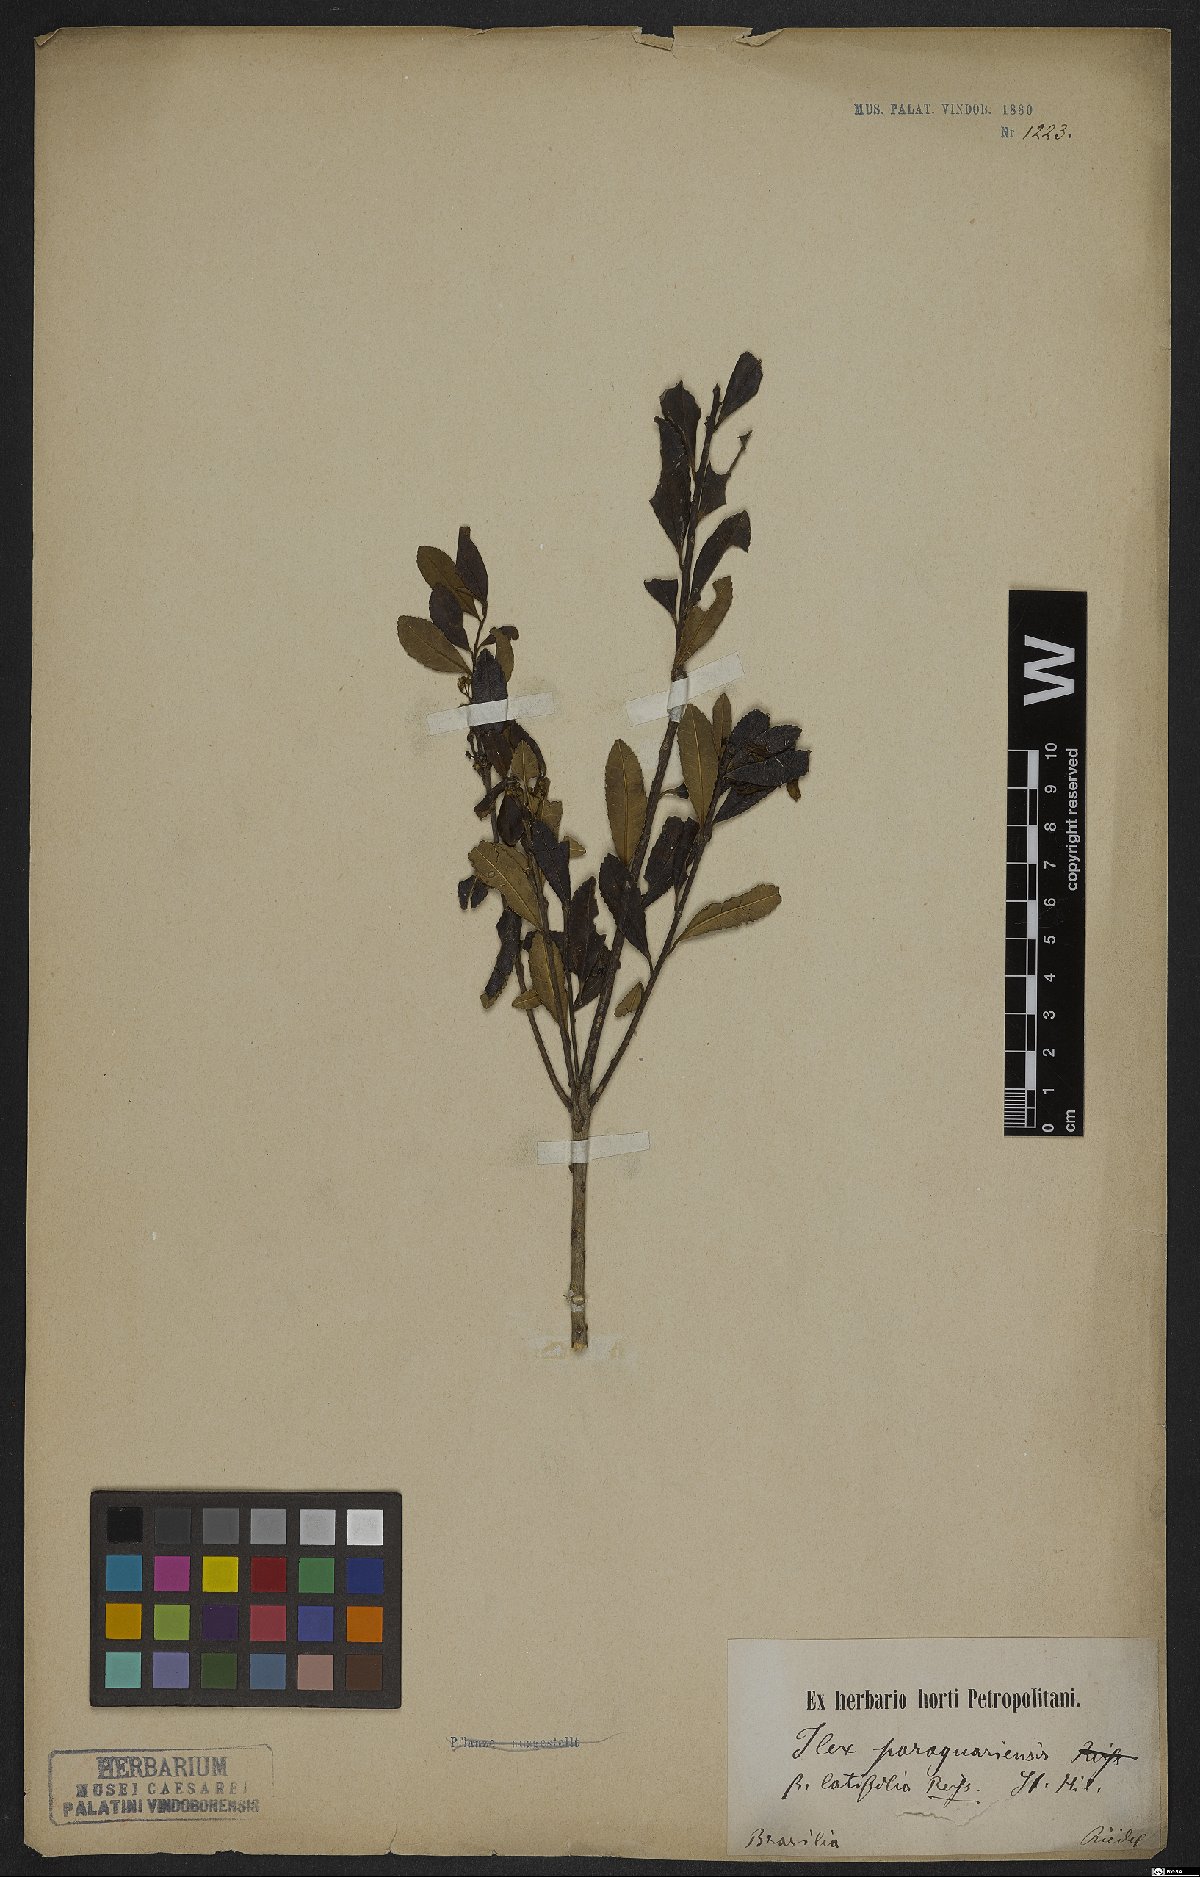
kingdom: Plantae
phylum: Tracheophyta
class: Magnoliopsida
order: Aquifoliales
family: Aquifoliaceae
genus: Ilex
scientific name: Ilex paraguariensis
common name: Paraguay tea
